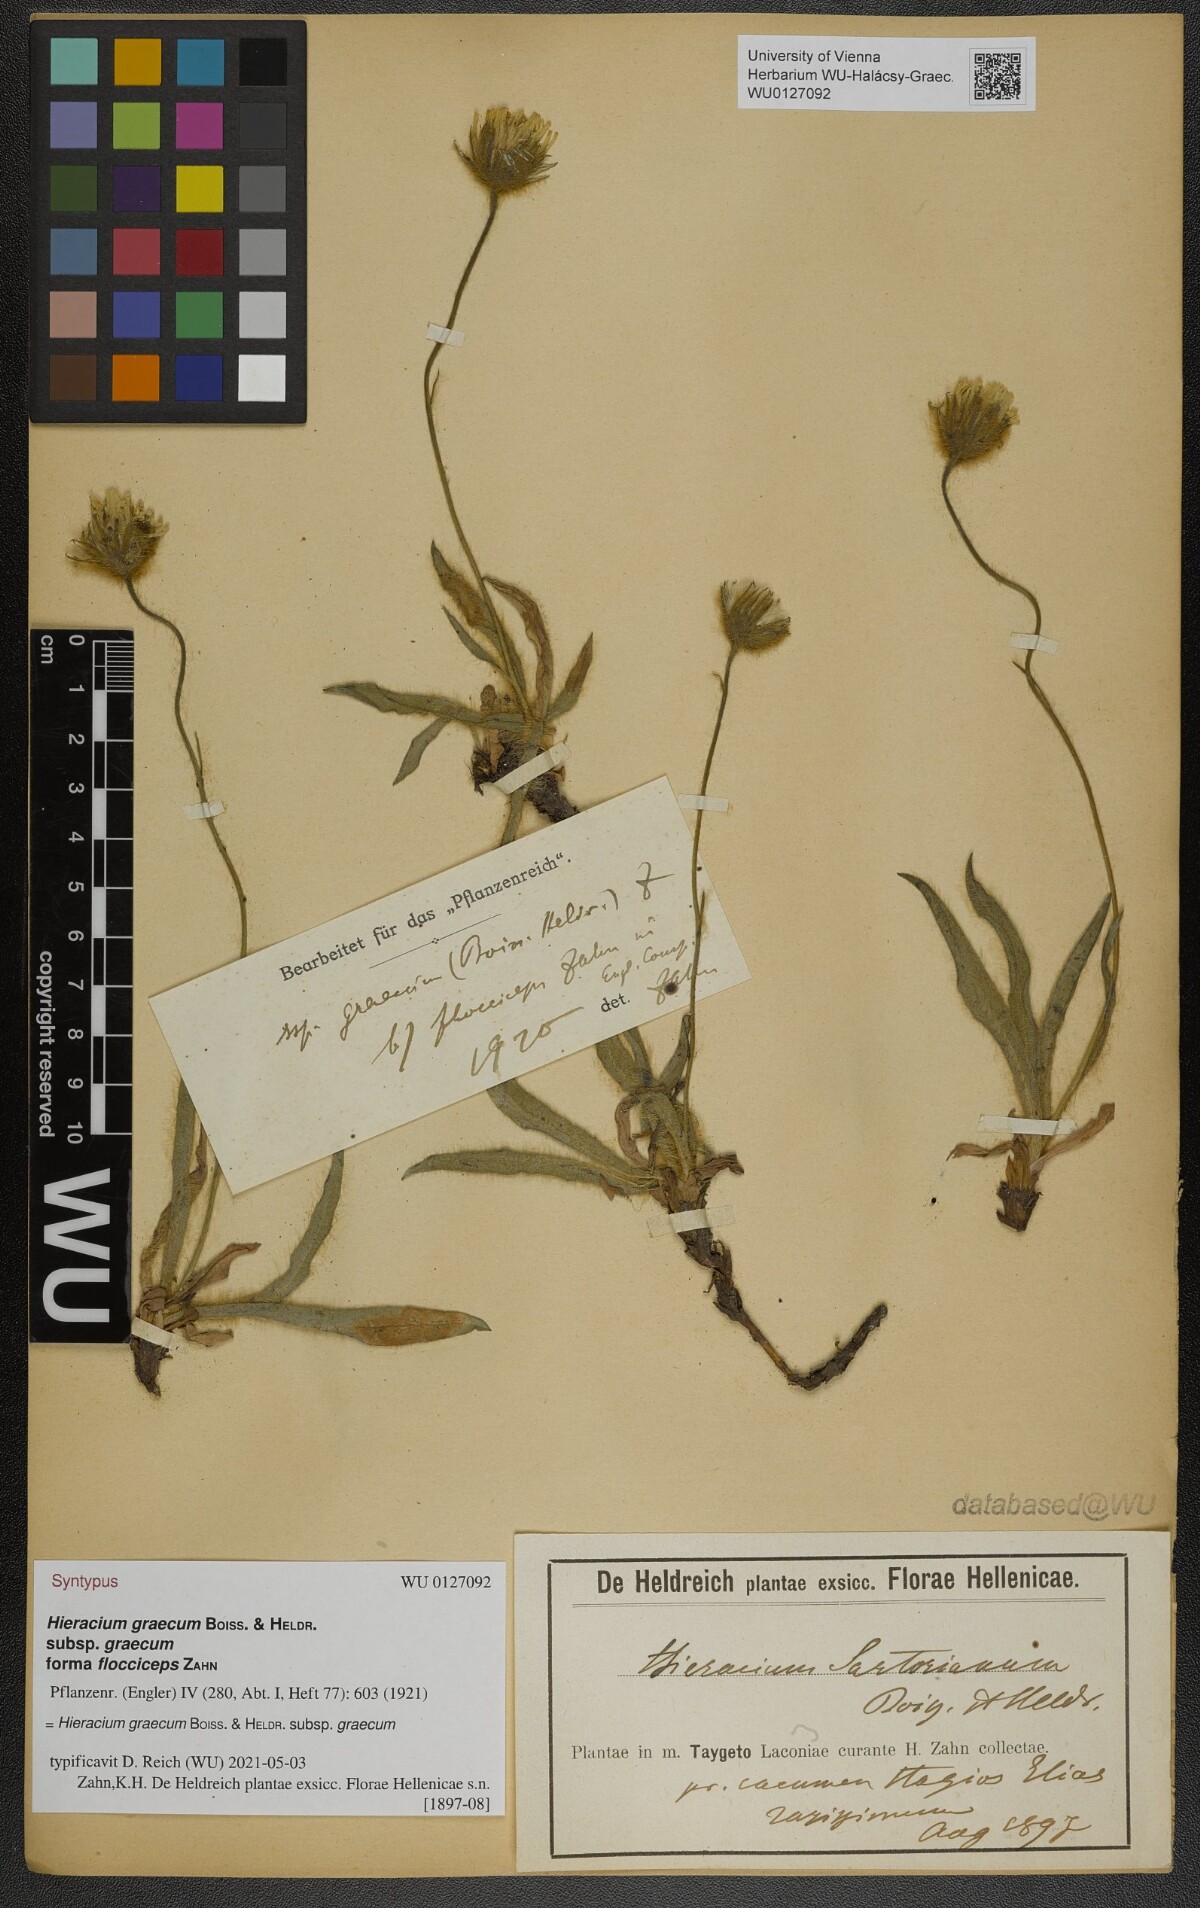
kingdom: Plantae
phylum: Tracheophyta
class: Magnoliopsida
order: Asterales
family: Asteraceae
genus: Hieracium
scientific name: Hieracium graecum
